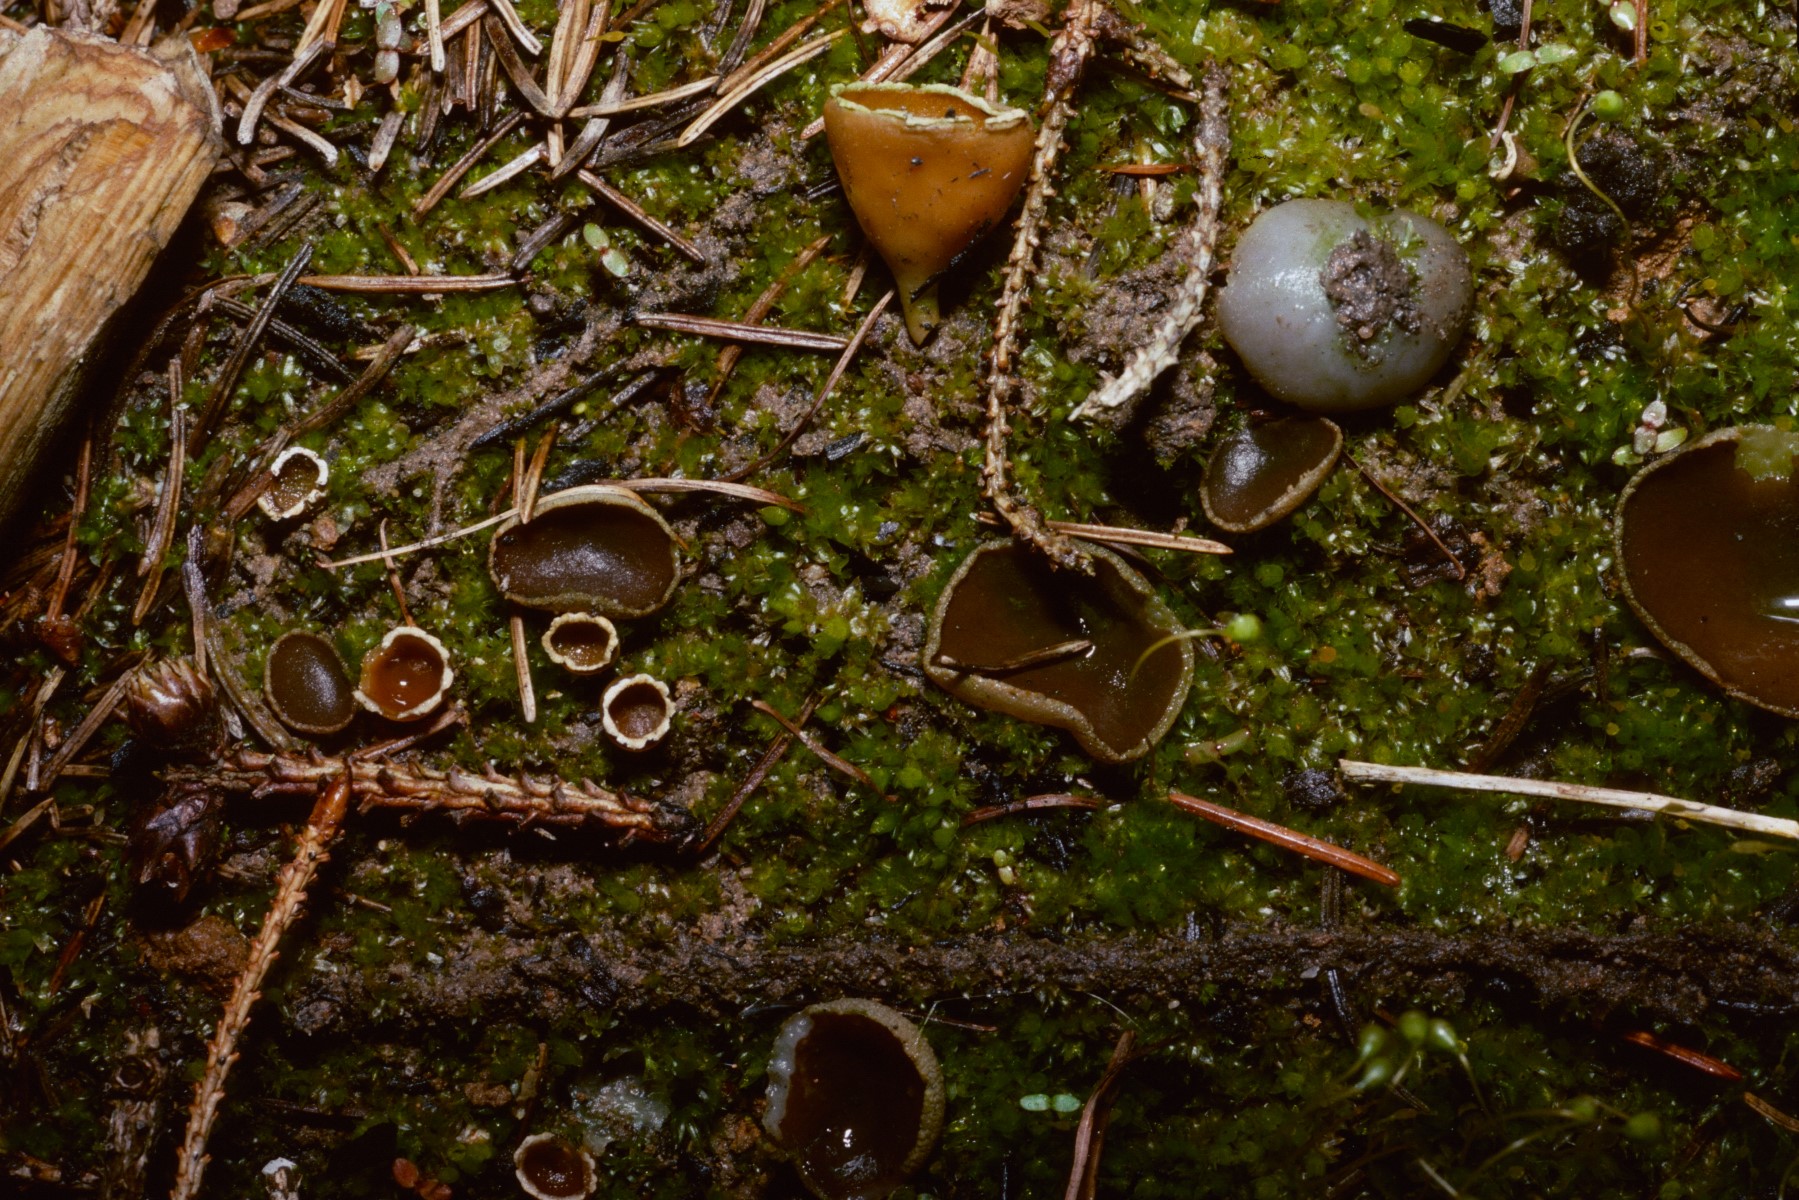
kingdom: Fungi
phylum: Ascomycota
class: Pezizomycetes
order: Pezizales
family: Pyronemataceae
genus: Geopyxis
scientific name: Geopyxis carbonaria
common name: kulbæger
